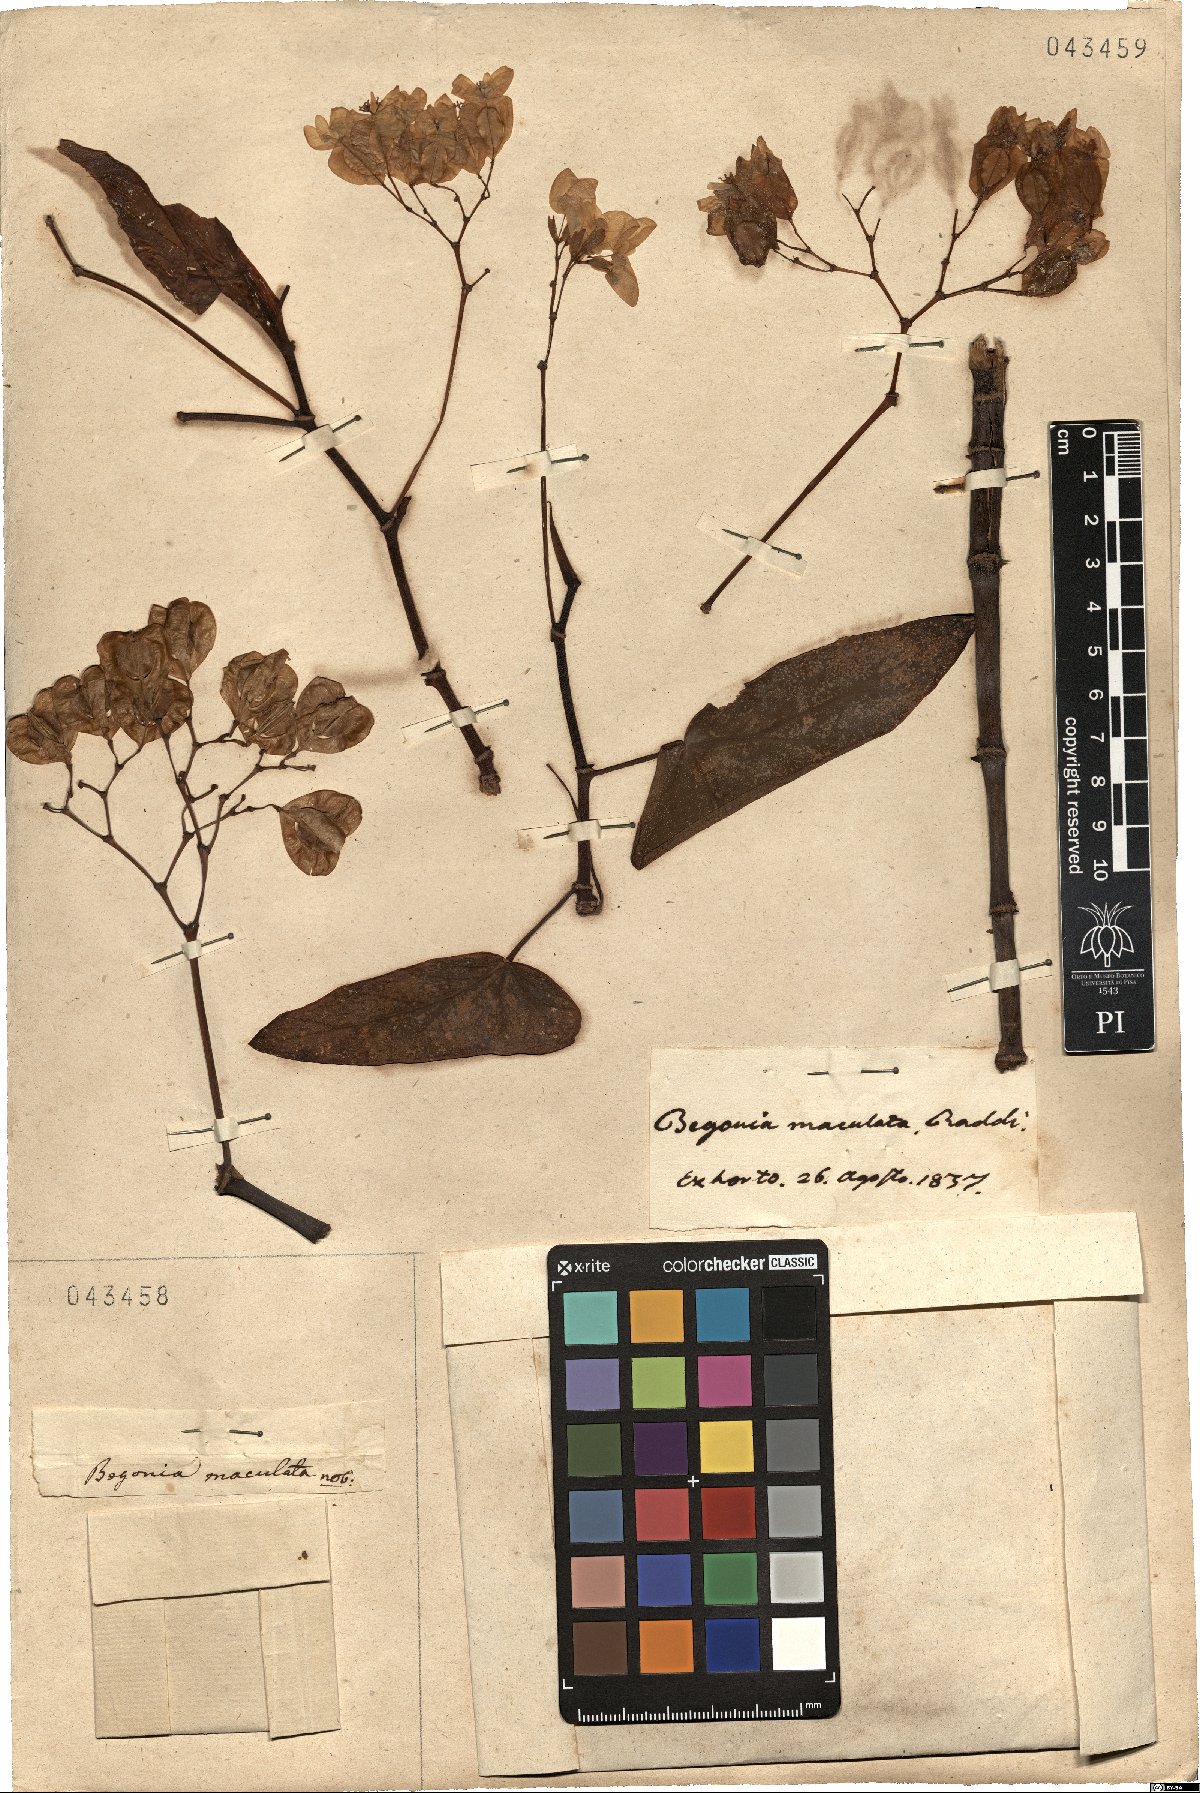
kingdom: Plantae
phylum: Tracheophyta
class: Magnoliopsida
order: Cucurbitales
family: Begoniaceae
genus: Begonia
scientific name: Begonia maculata
